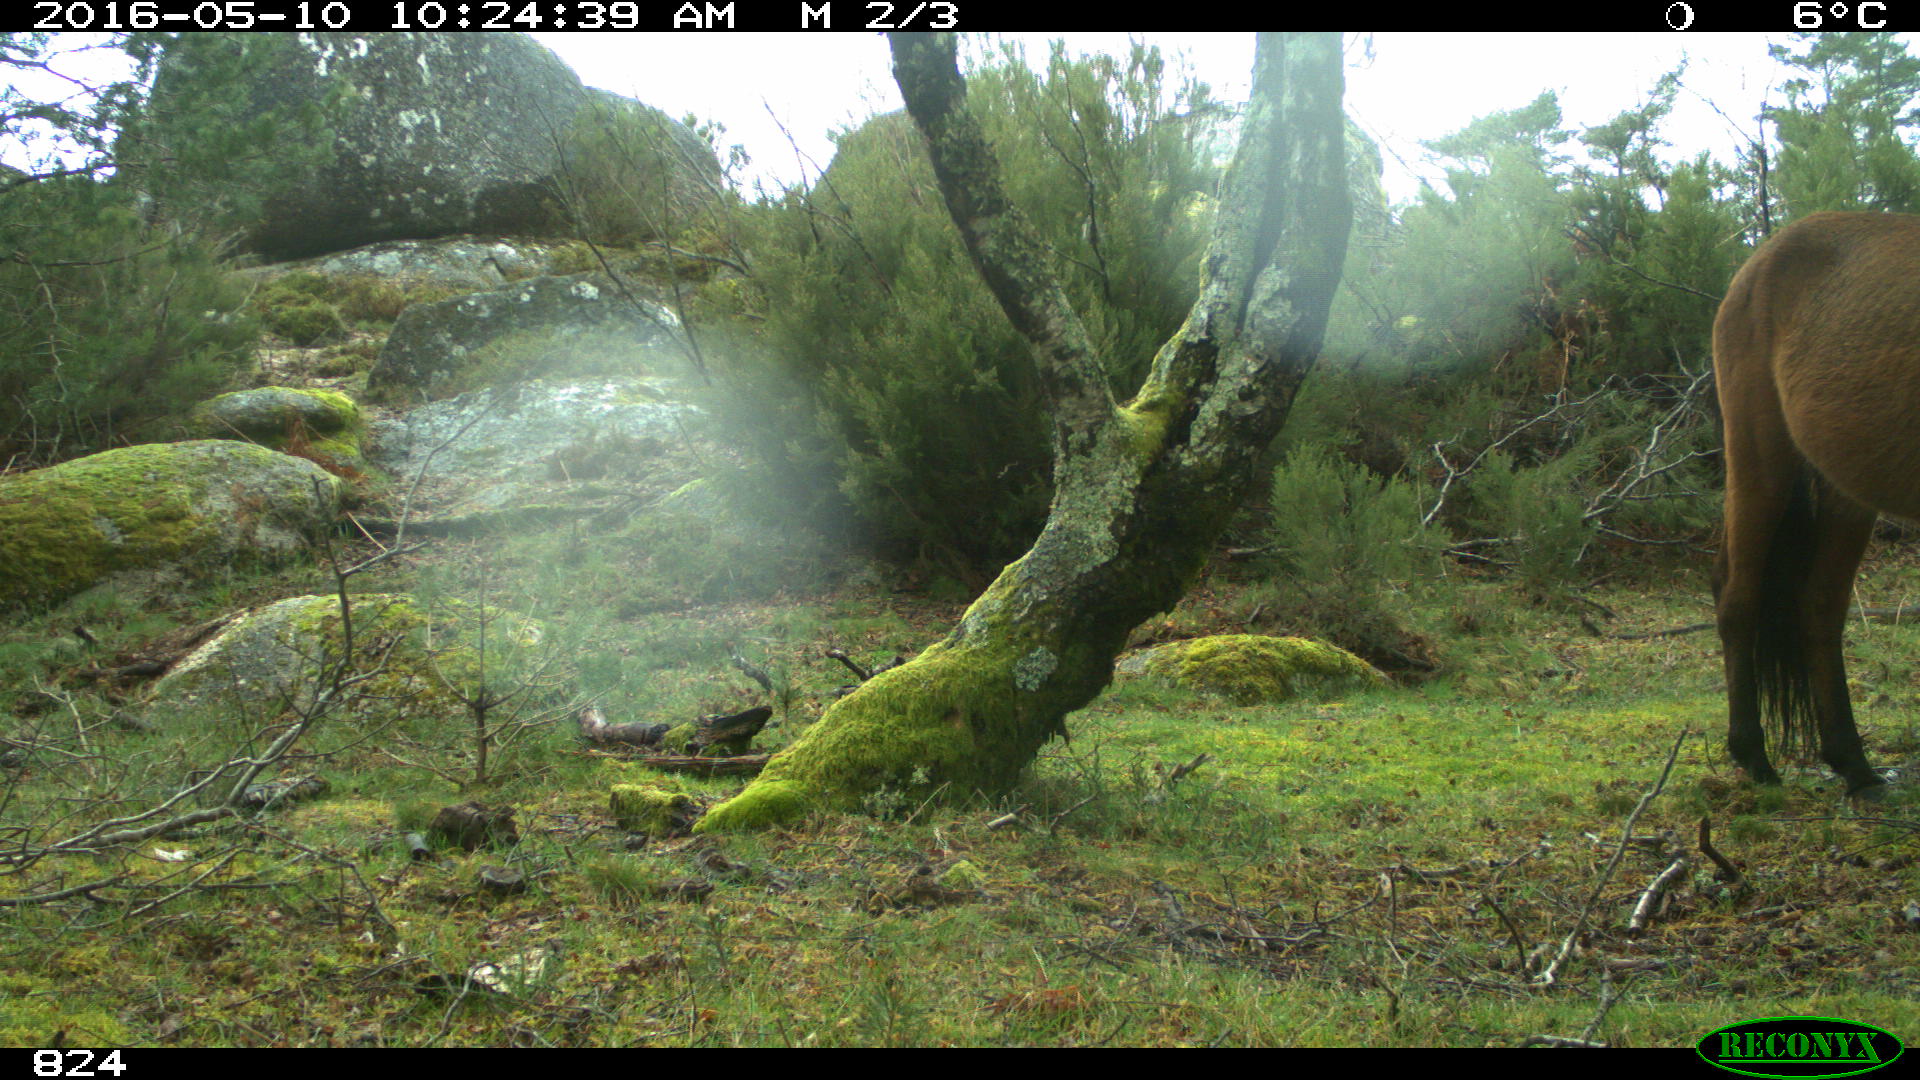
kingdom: Animalia
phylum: Chordata
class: Mammalia
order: Perissodactyla
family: Equidae
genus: Equus
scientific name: Equus caballus
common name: Horse
